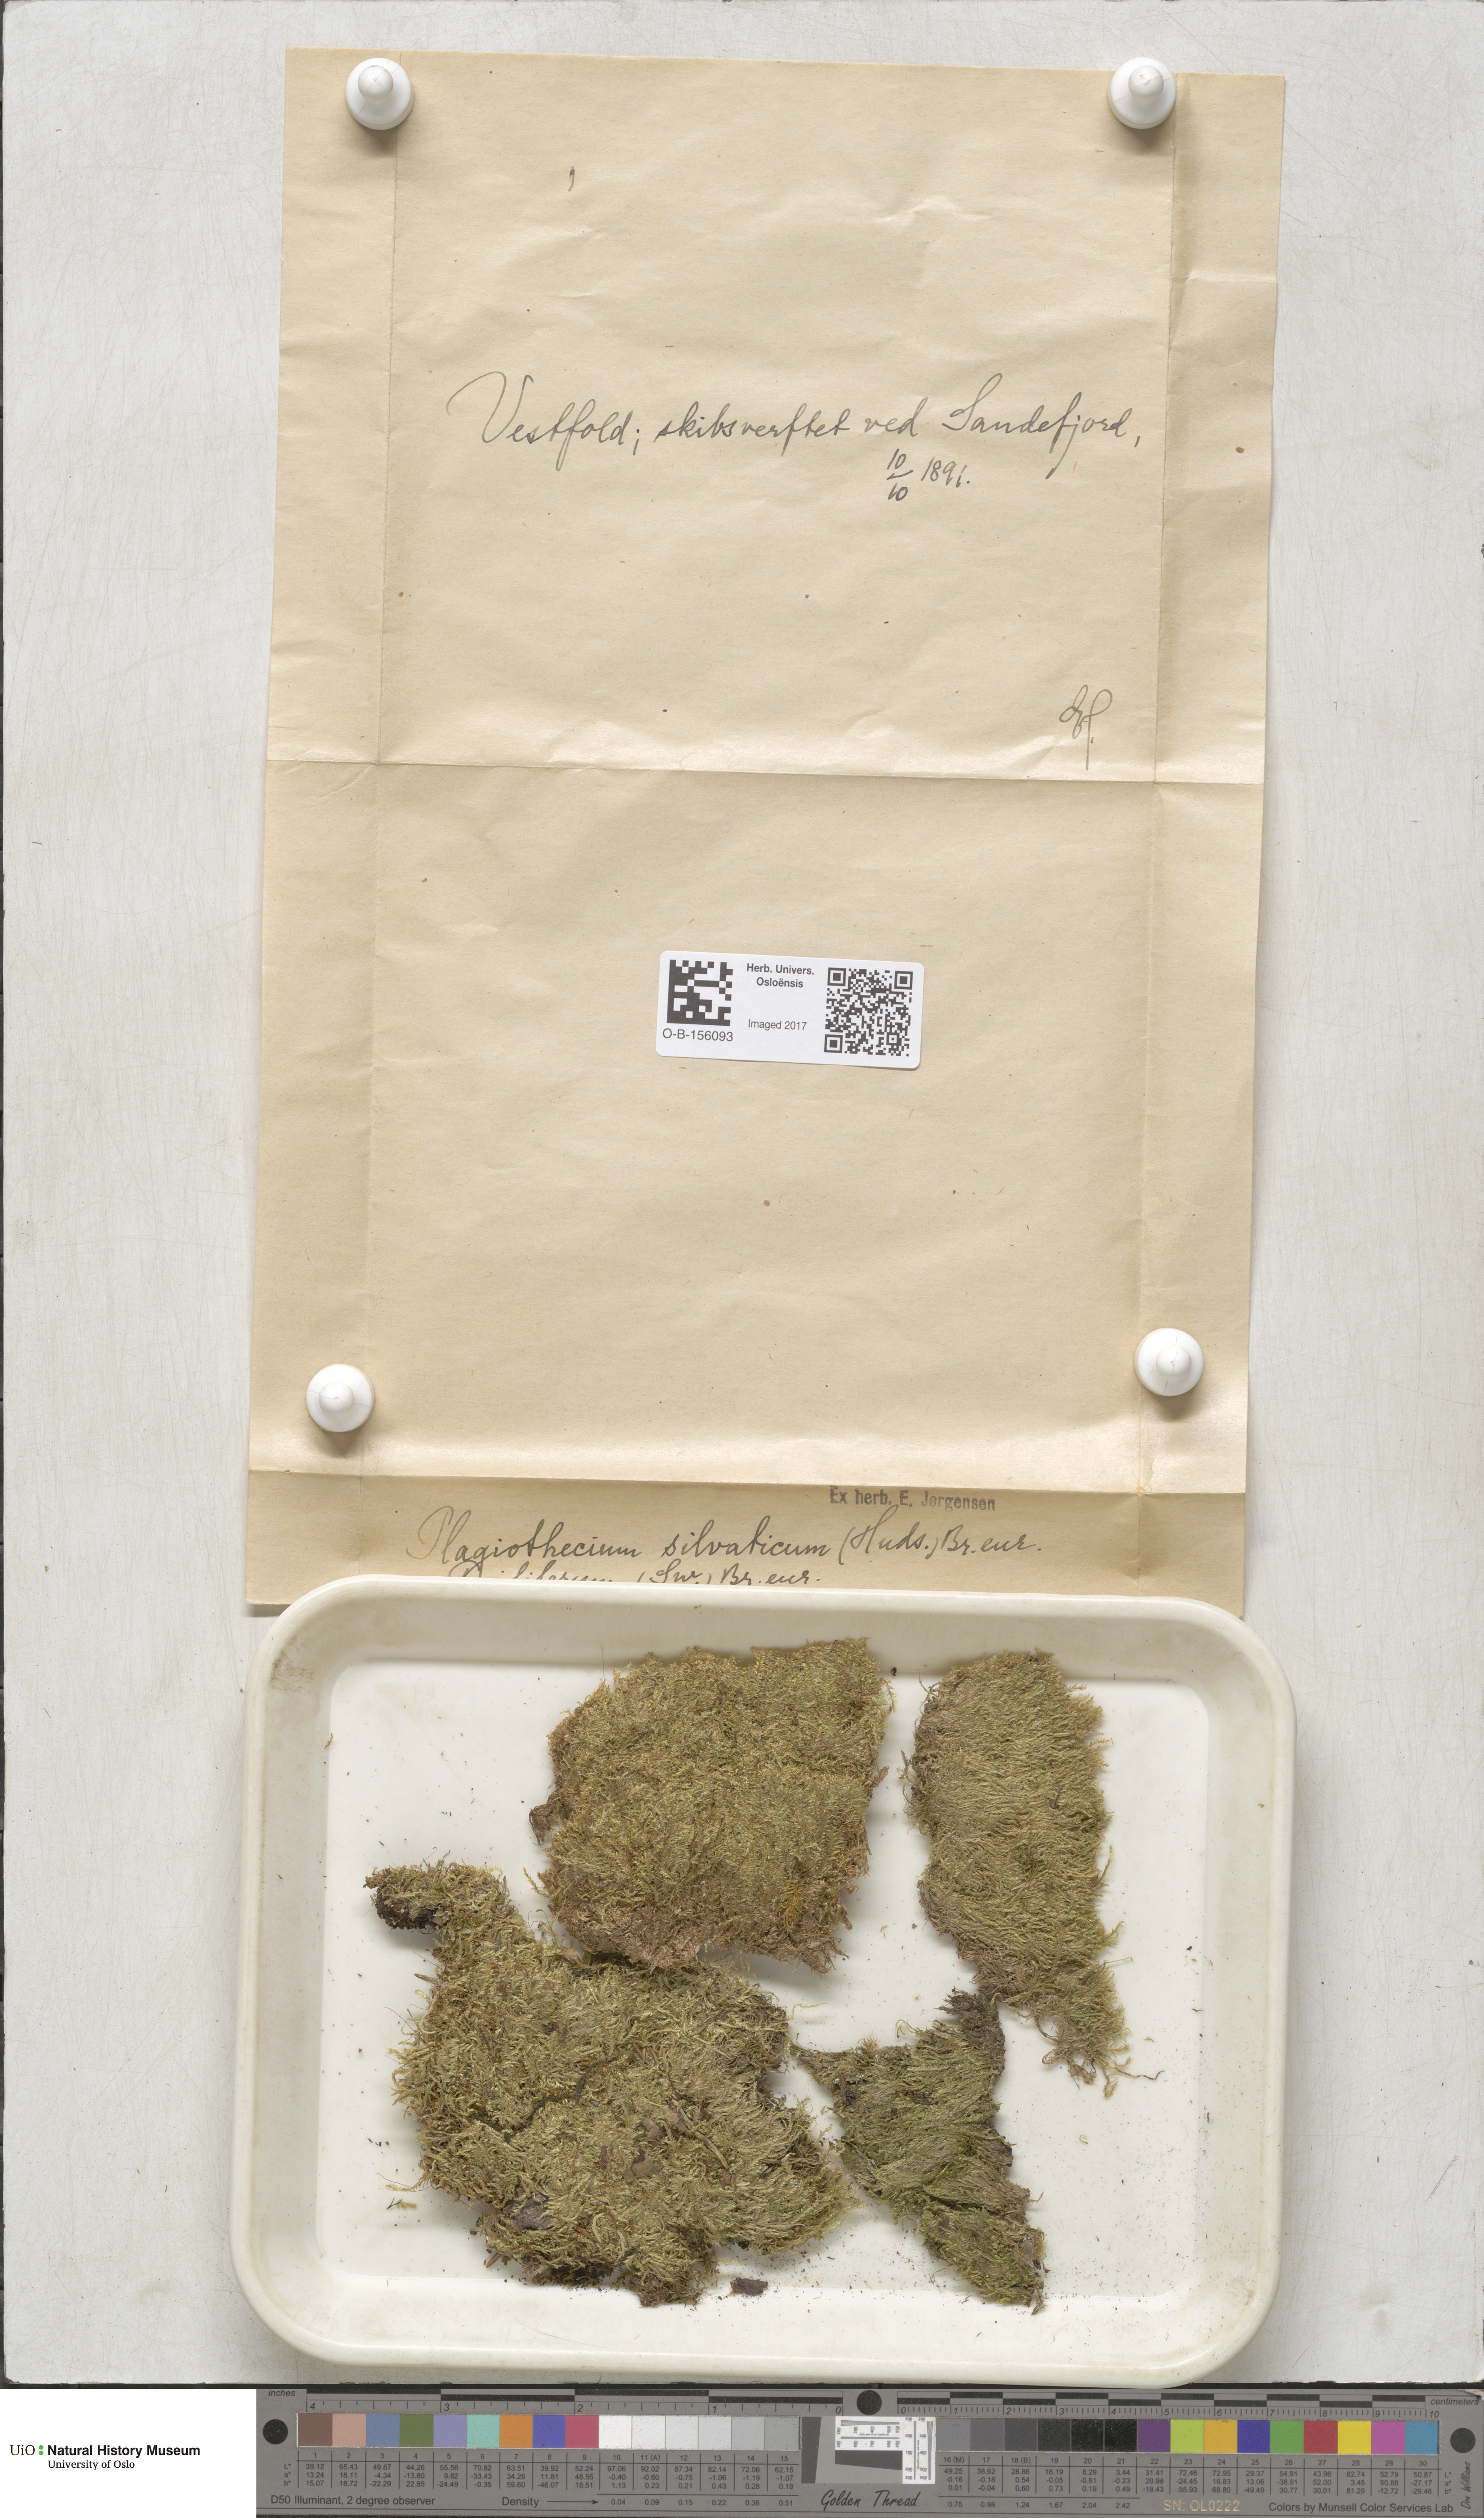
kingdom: Plantae
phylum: Bryophyta
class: Bryopsida
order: Hypnales
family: Plagiotheciaceae
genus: Plagiothecium
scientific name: Plagiothecium nemorale
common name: Woodsy silk-moss
